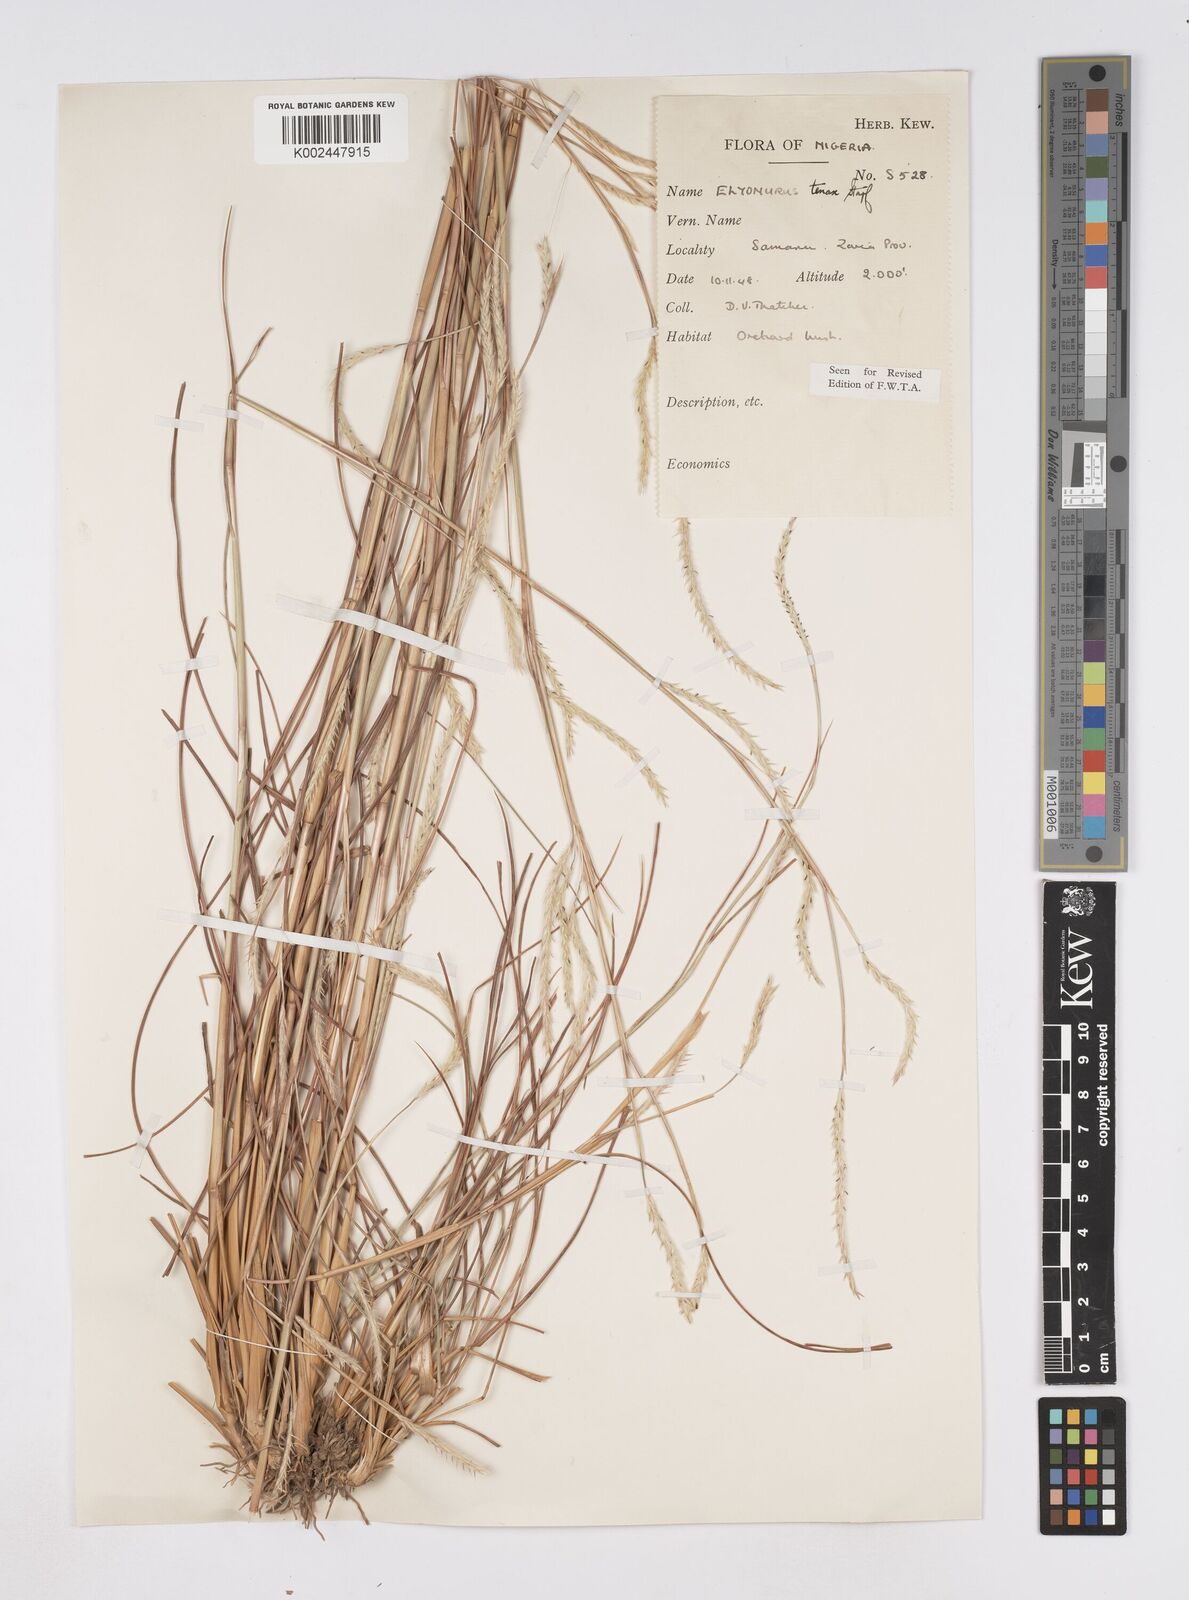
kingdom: Plantae
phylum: Tracheophyta
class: Liliopsida
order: Poales
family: Poaceae
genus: Elionurus
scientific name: Elionurus
